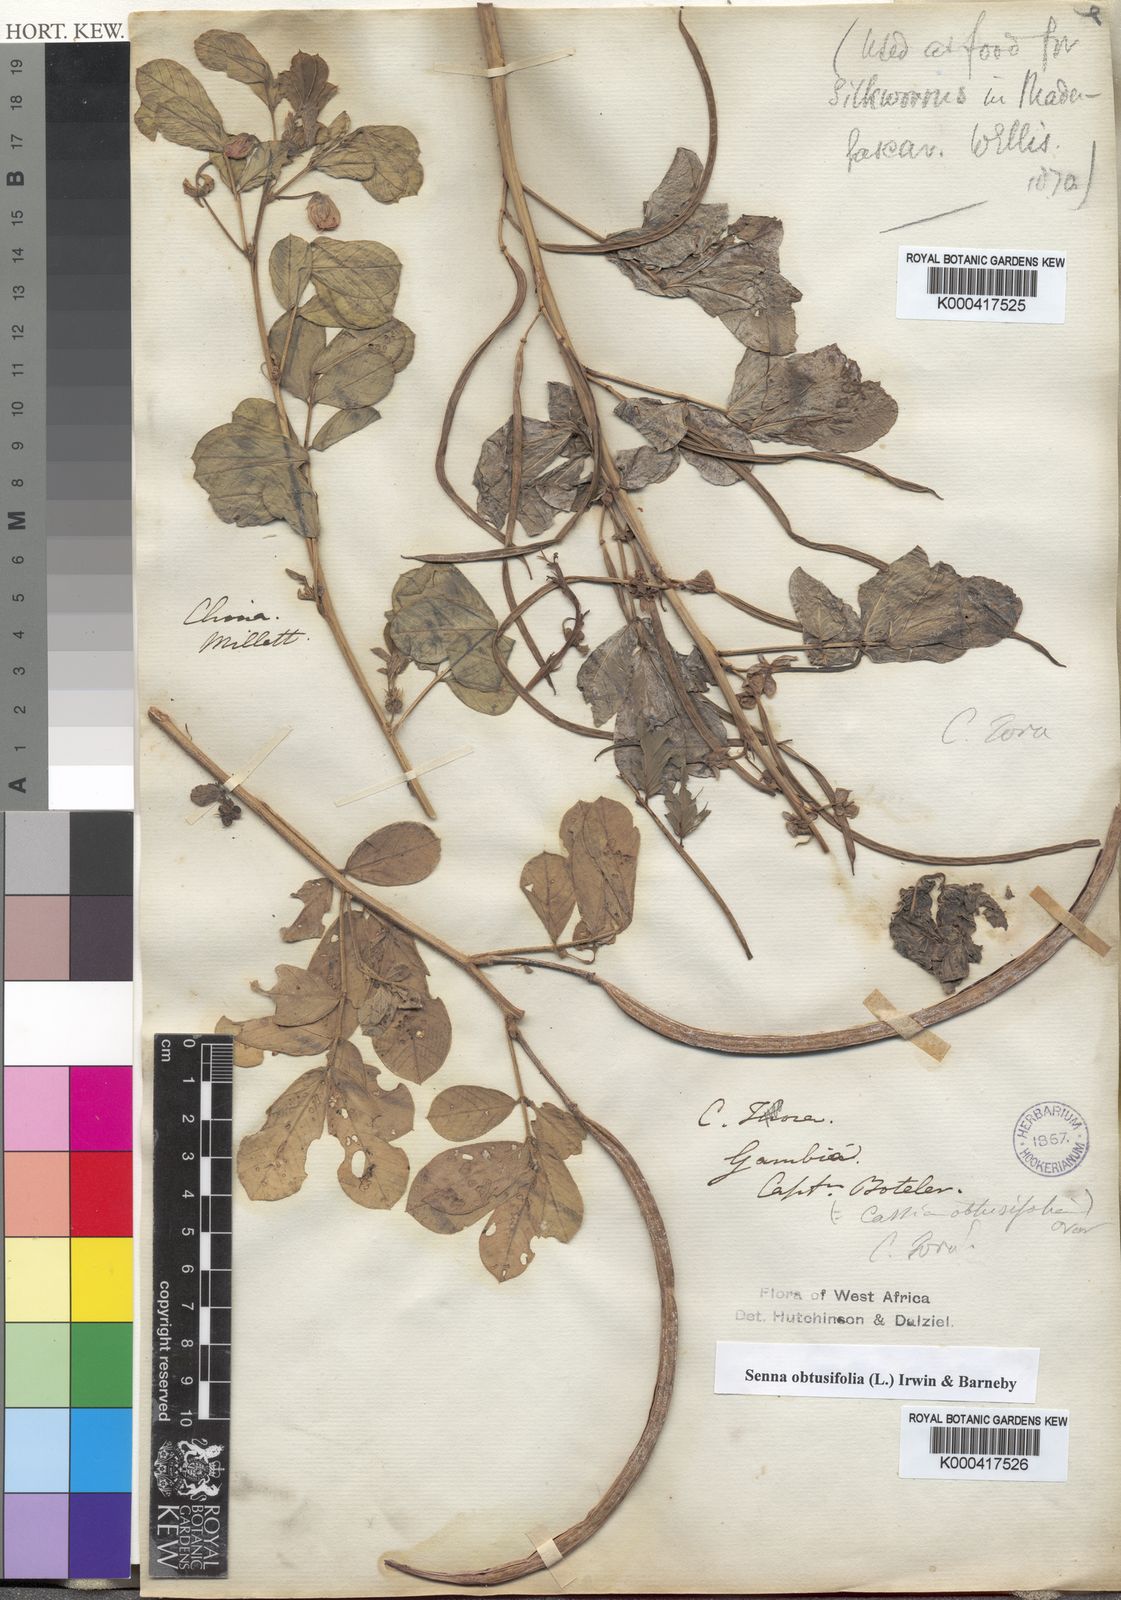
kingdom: Plantae
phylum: Tracheophyta
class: Magnoliopsida
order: Fabales
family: Fabaceae
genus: Senna
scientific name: Senna obtusifolia
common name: Java-bean
